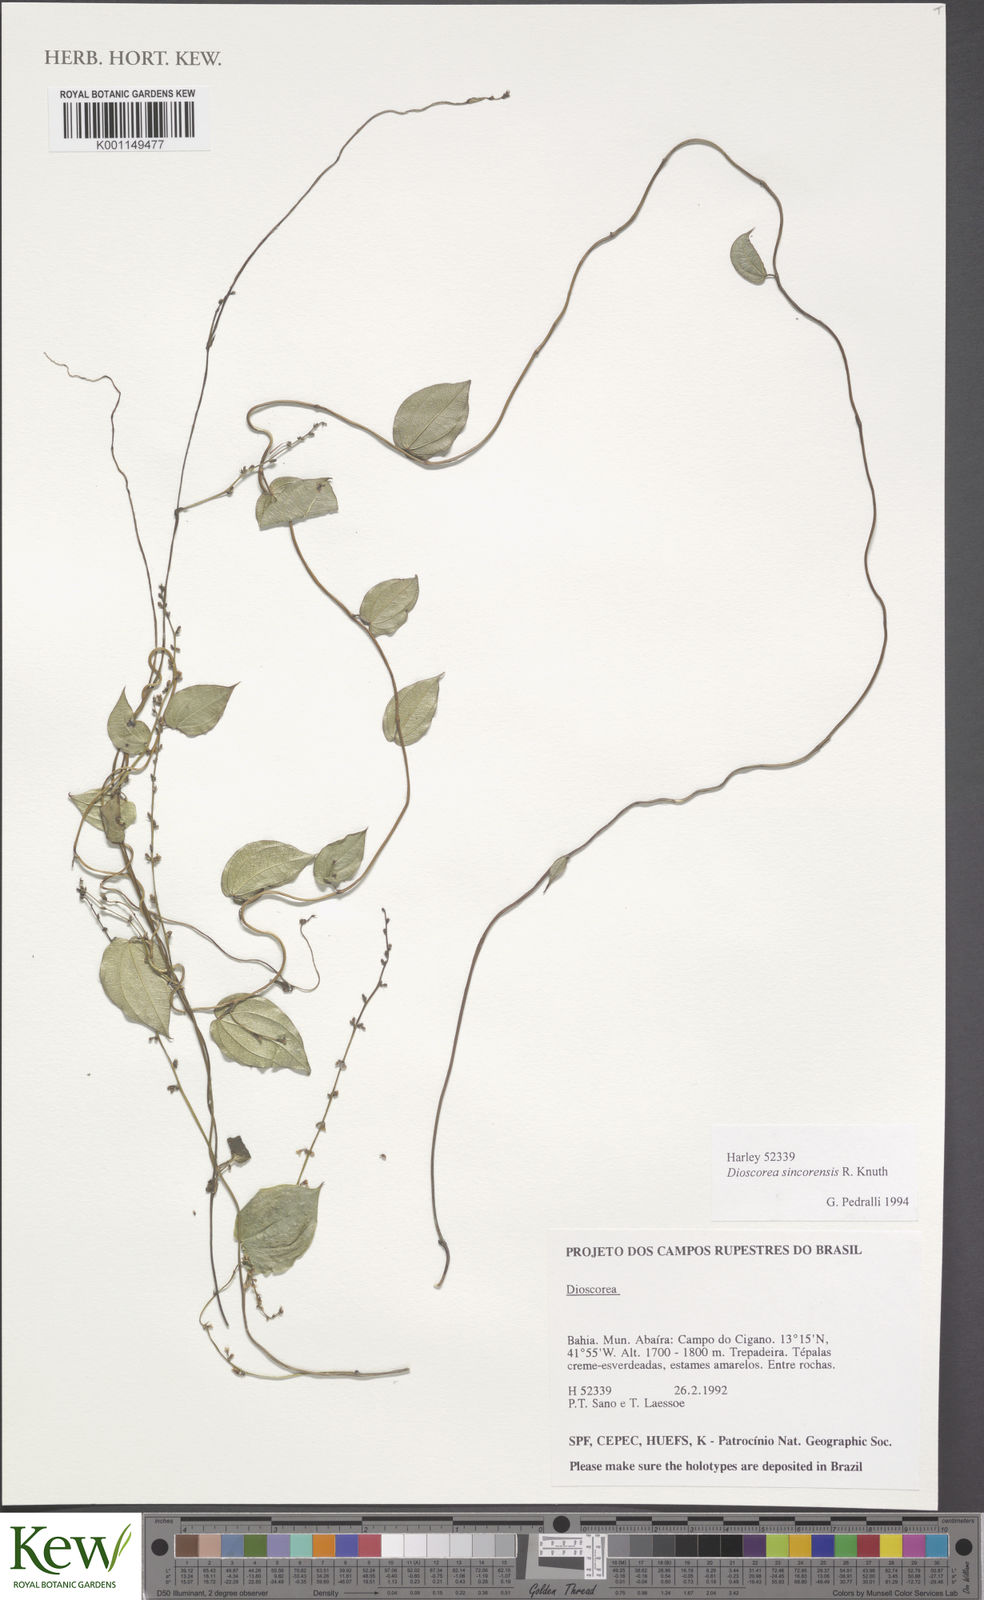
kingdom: Plantae
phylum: Tracheophyta
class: Liliopsida
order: Dioscoreales
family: Dioscoreaceae
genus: Dioscorea
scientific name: Dioscorea sincorensis
